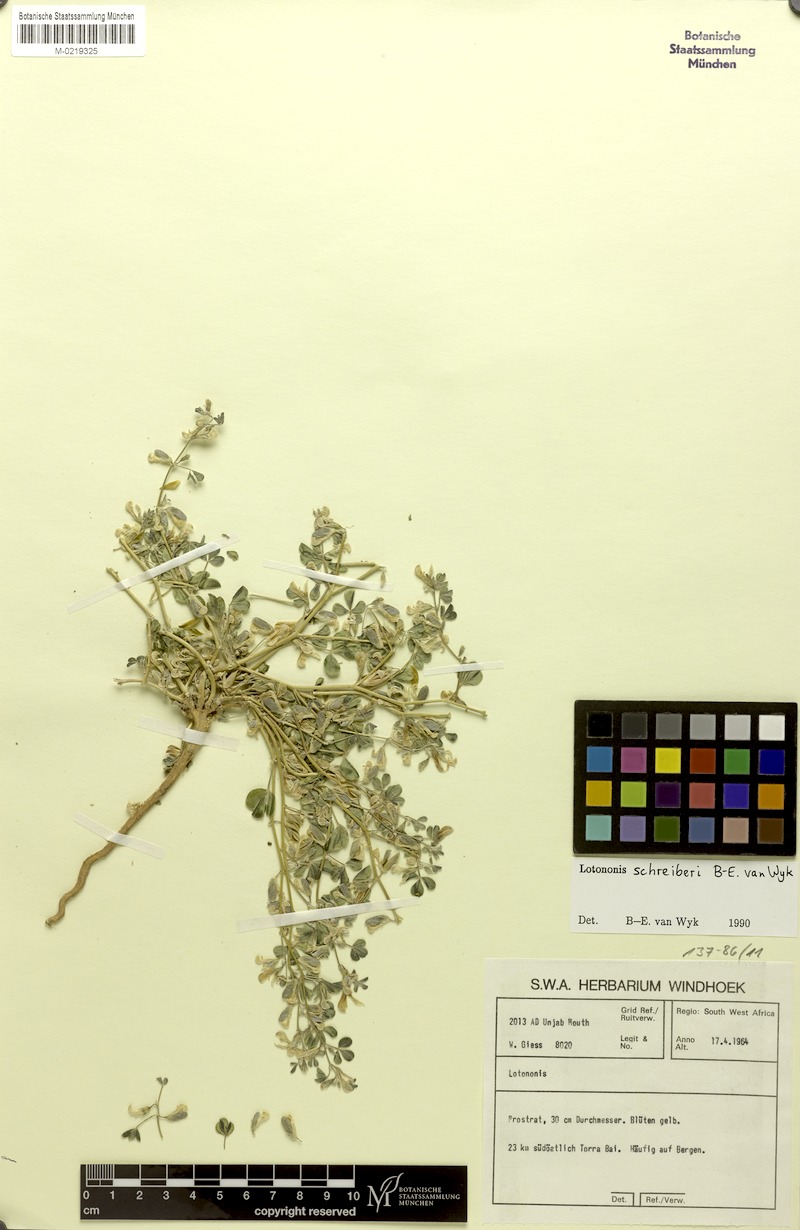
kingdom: Plantae
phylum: Tracheophyta
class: Magnoliopsida
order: Fabales
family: Fabaceae
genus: Lotononis
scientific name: Lotononis schreiberi
